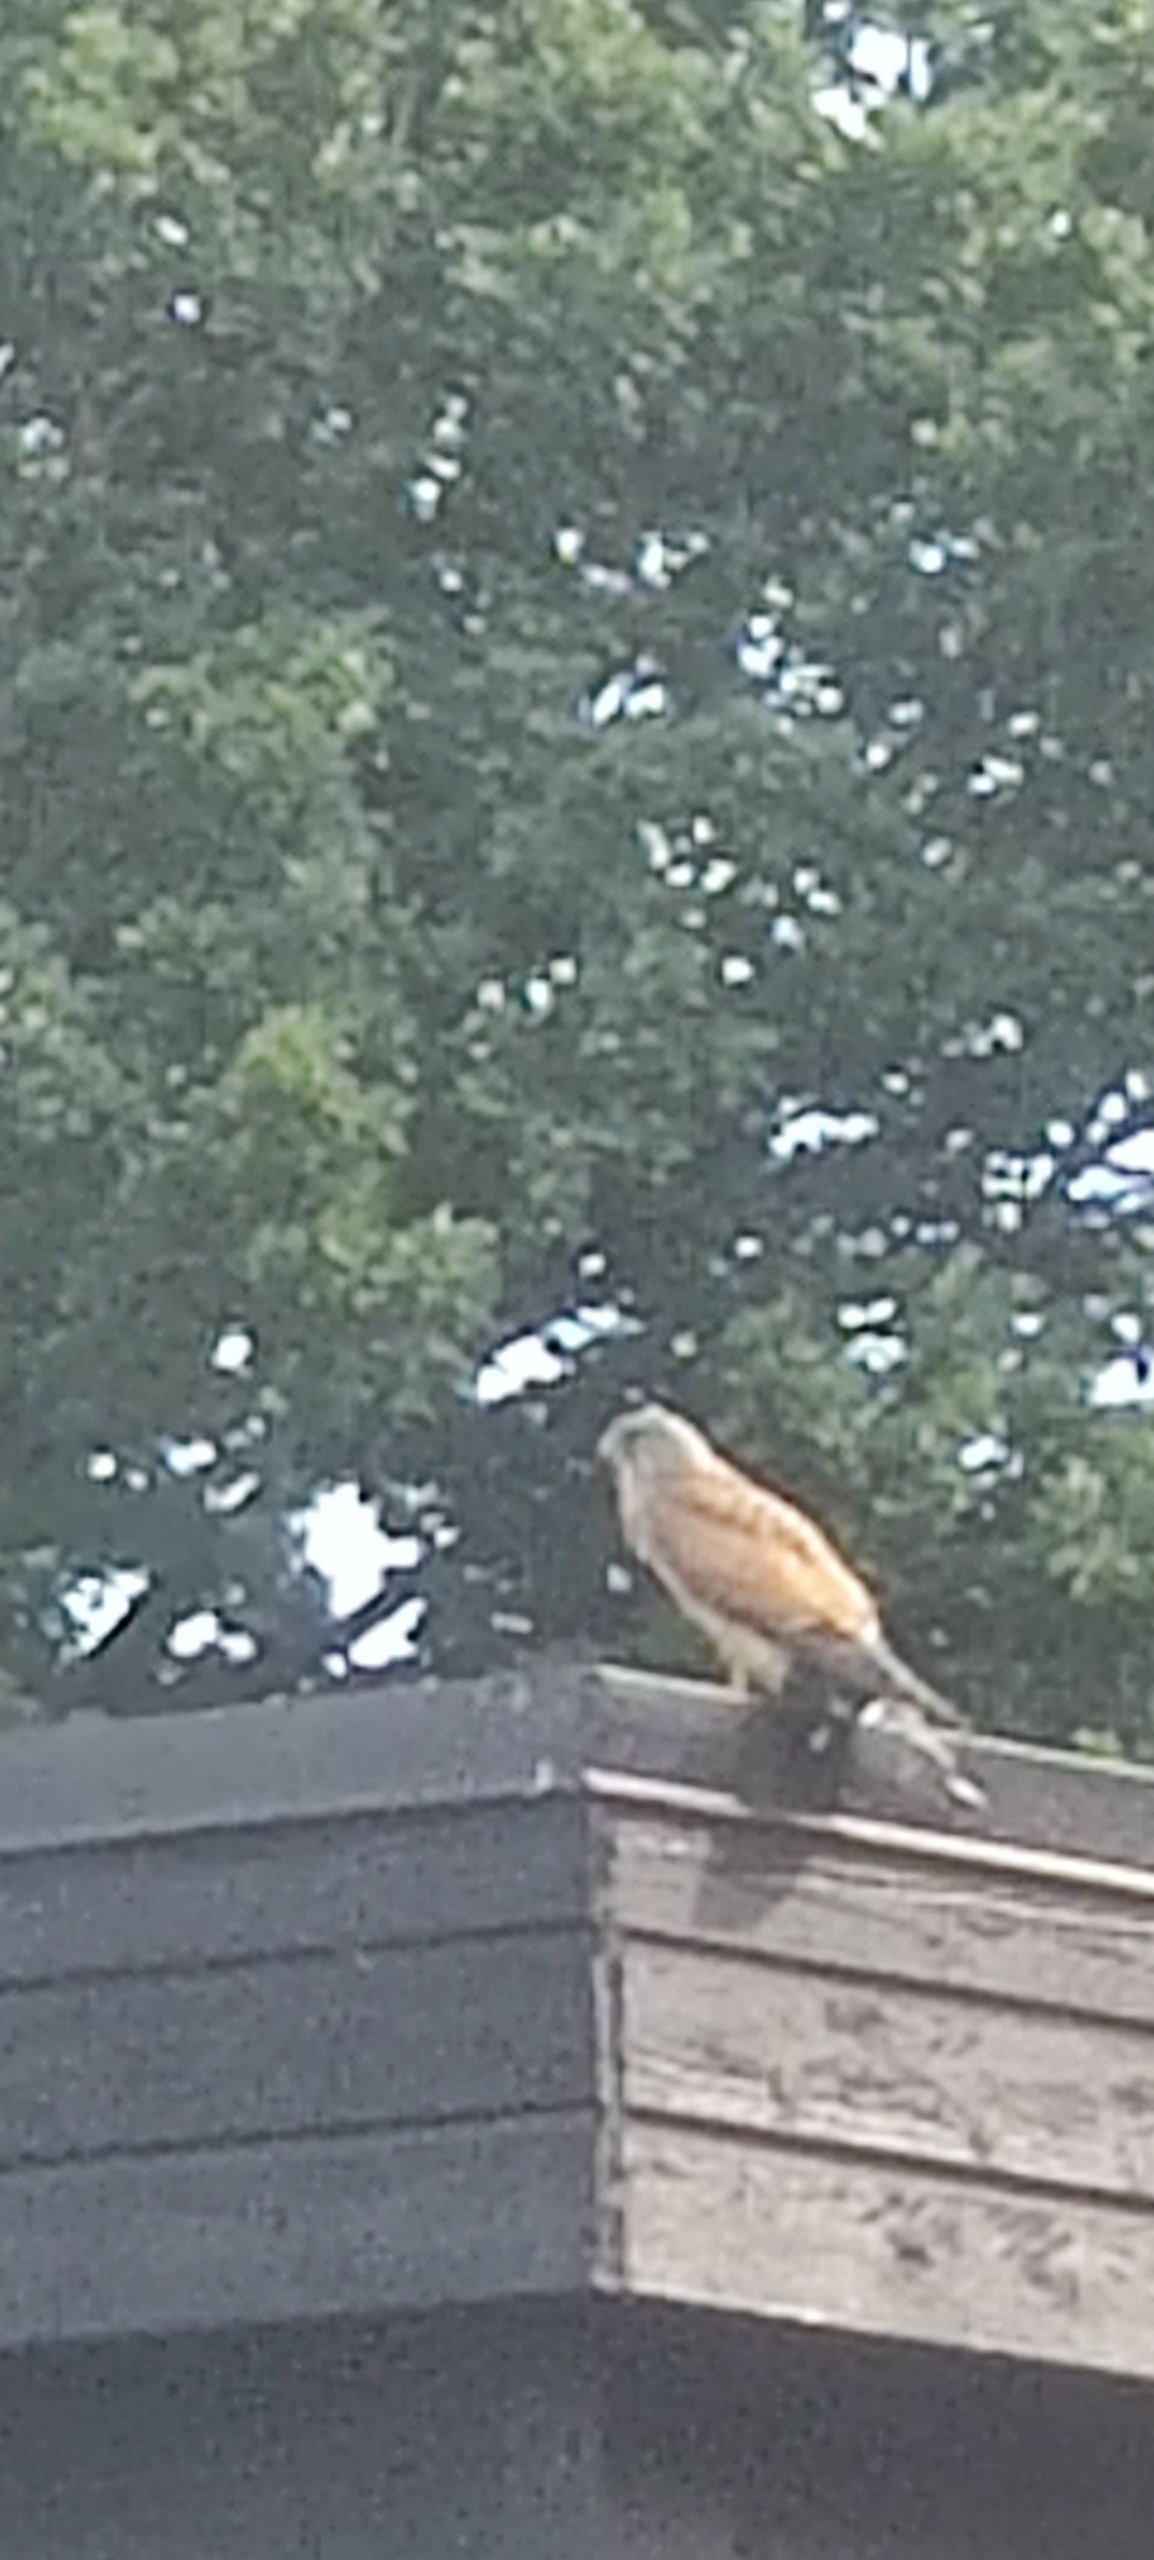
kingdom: Animalia
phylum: Chordata
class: Aves
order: Falconiformes
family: Falconidae
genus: Falco
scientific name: Falco tinnunculus
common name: Tårnfalk
